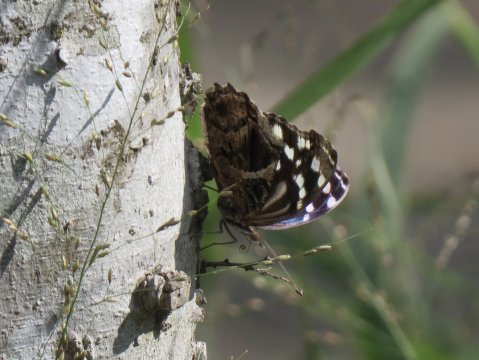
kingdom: Animalia
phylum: Arthropoda
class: Insecta
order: Lepidoptera
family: Nymphalidae
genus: Myscelia
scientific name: Myscelia ethusa
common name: Mexican Bluewing
